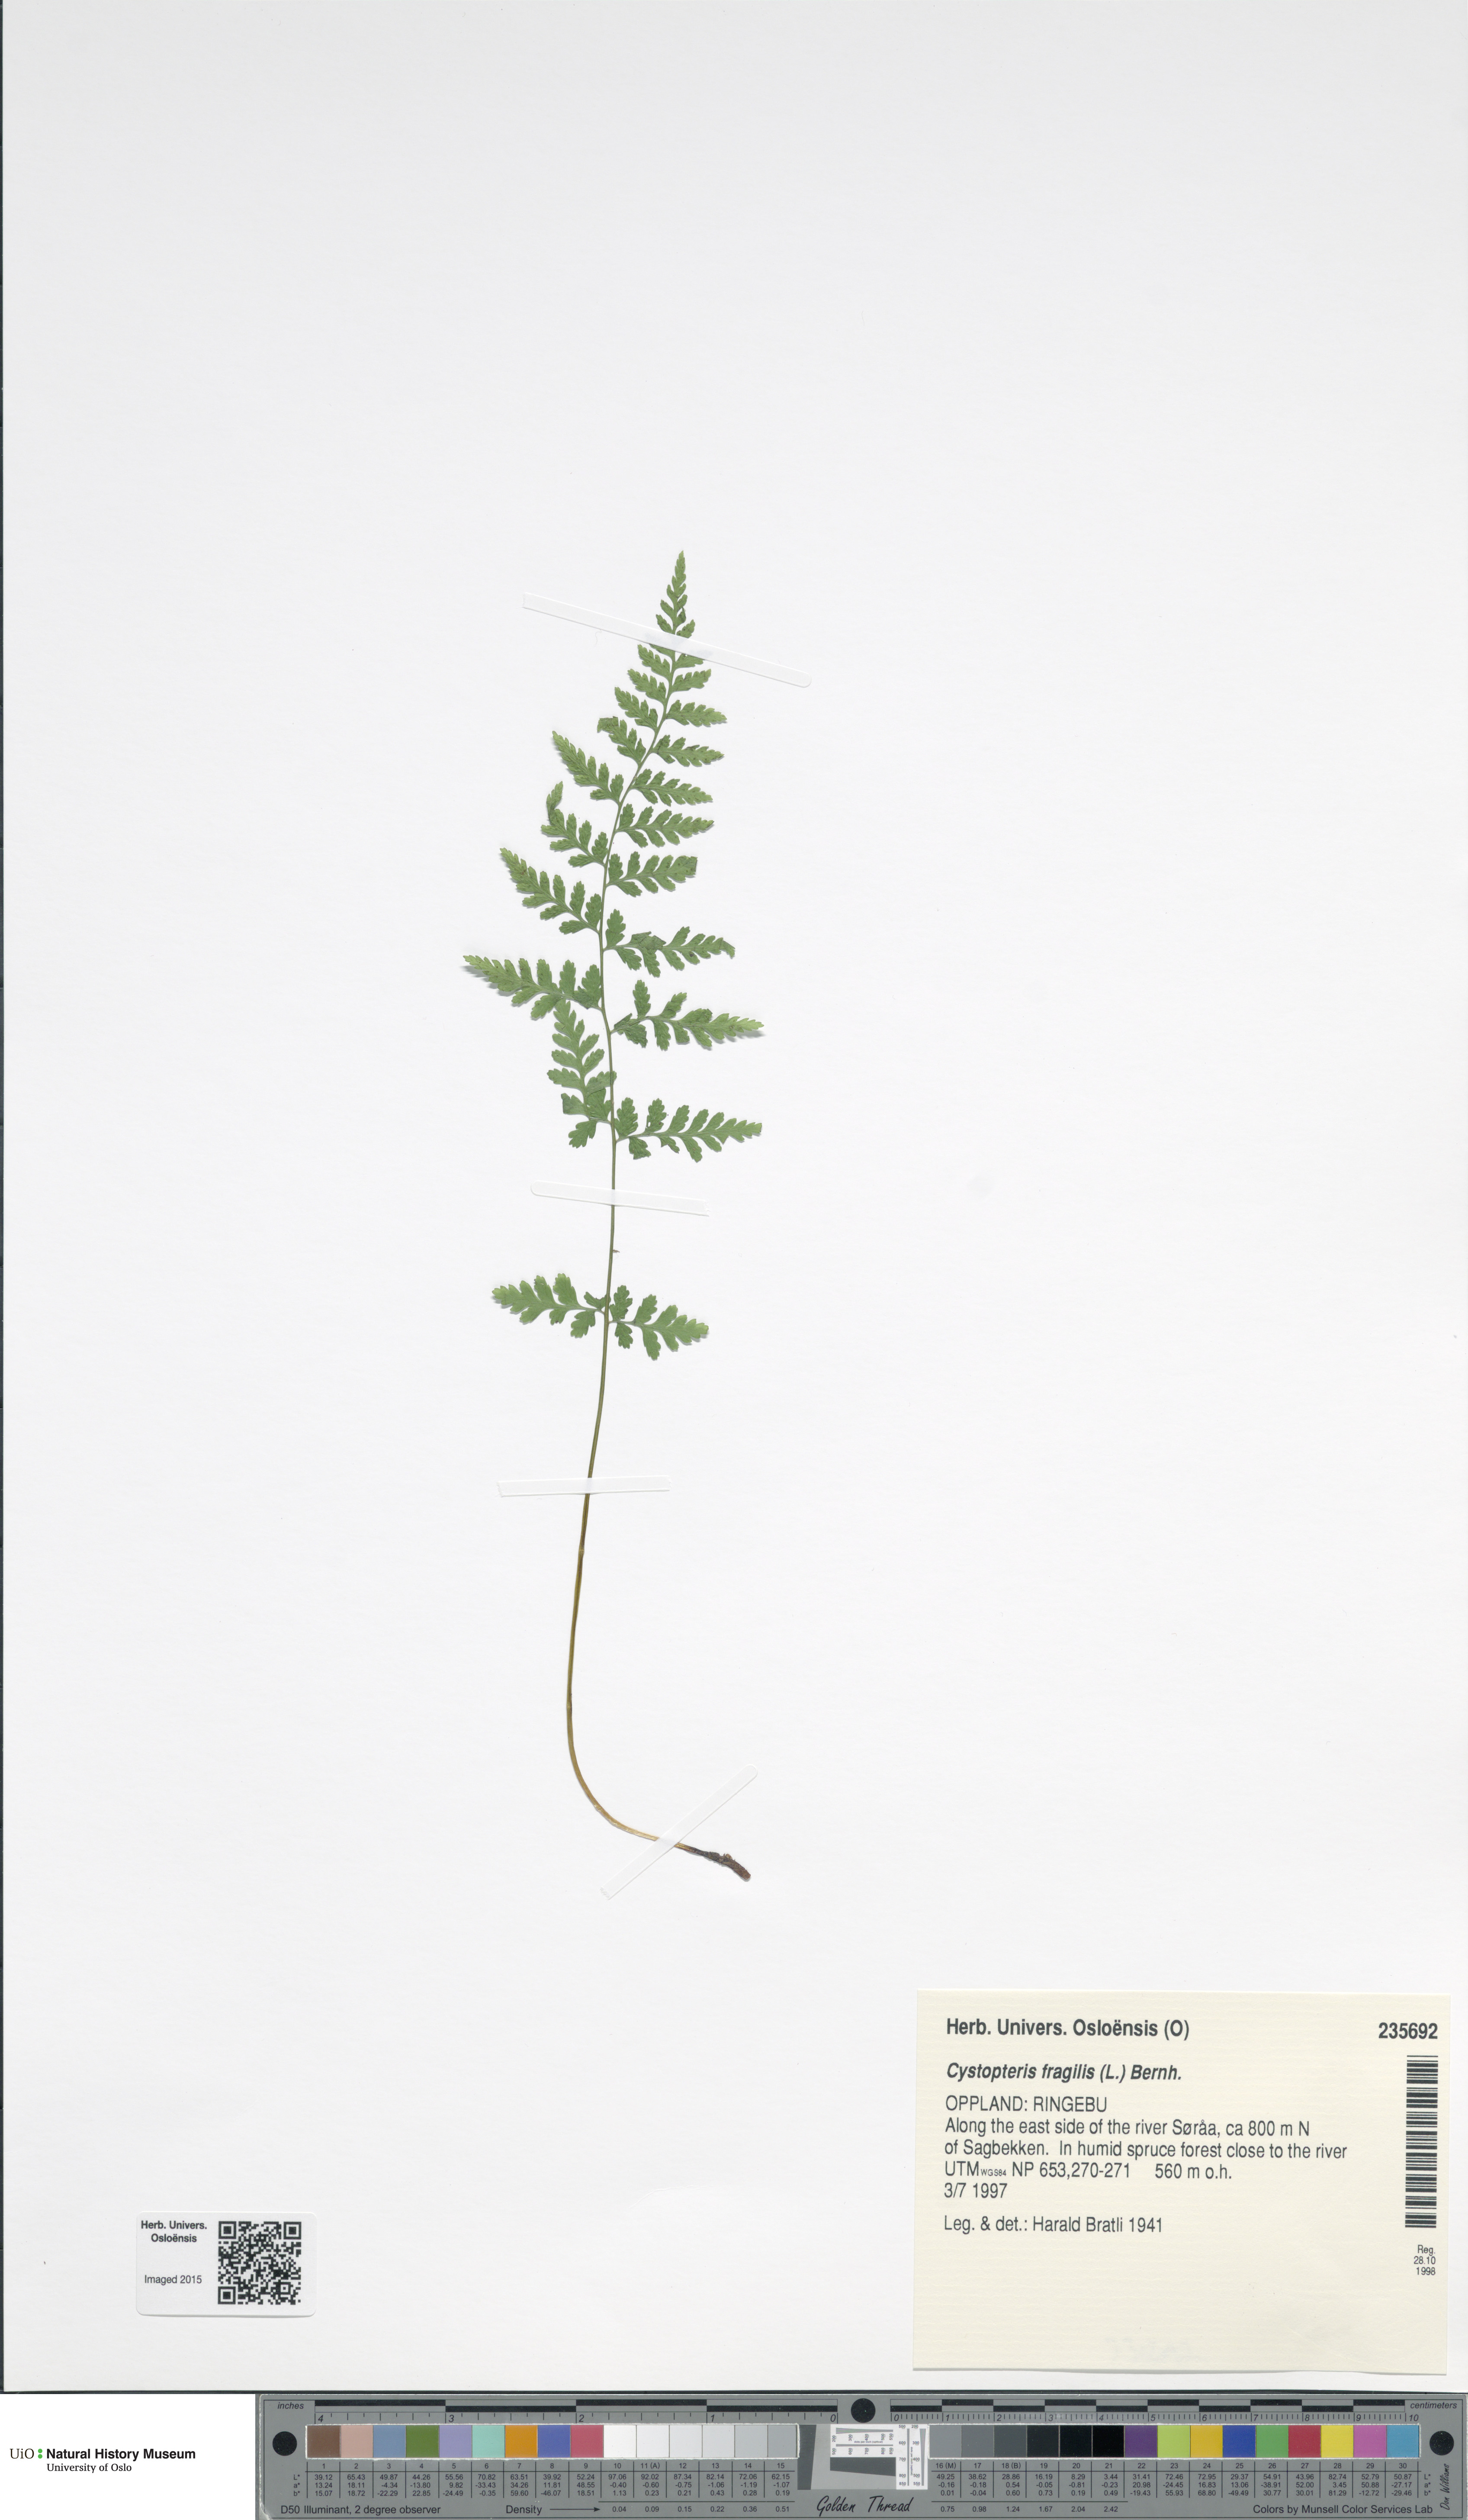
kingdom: Plantae
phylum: Tracheophyta
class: Polypodiopsida
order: Polypodiales
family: Cystopteridaceae
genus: Cystopteris
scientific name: Cystopteris fragilis
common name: Brittle bladder fern
